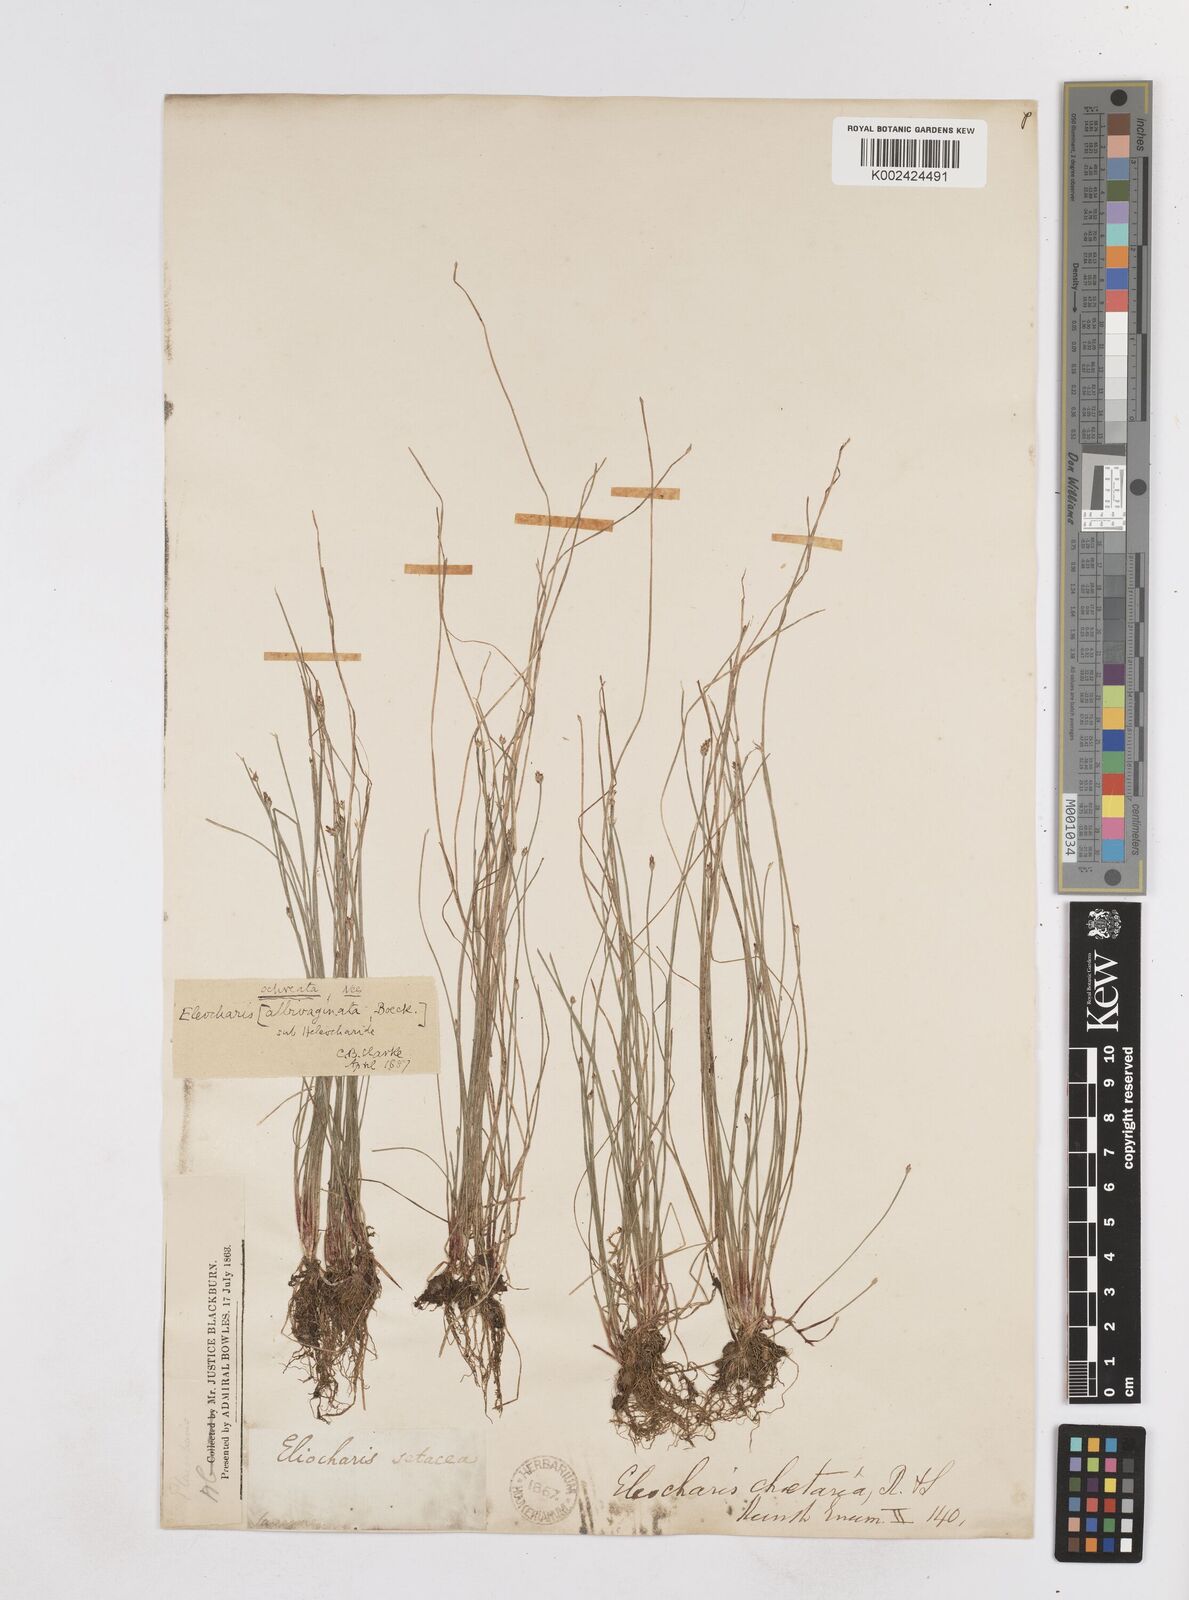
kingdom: Plantae
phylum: Tracheophyta
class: Liliopsida
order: Poales
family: Cyperaceae
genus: Eleocharis
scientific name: Eleocharis minuta
